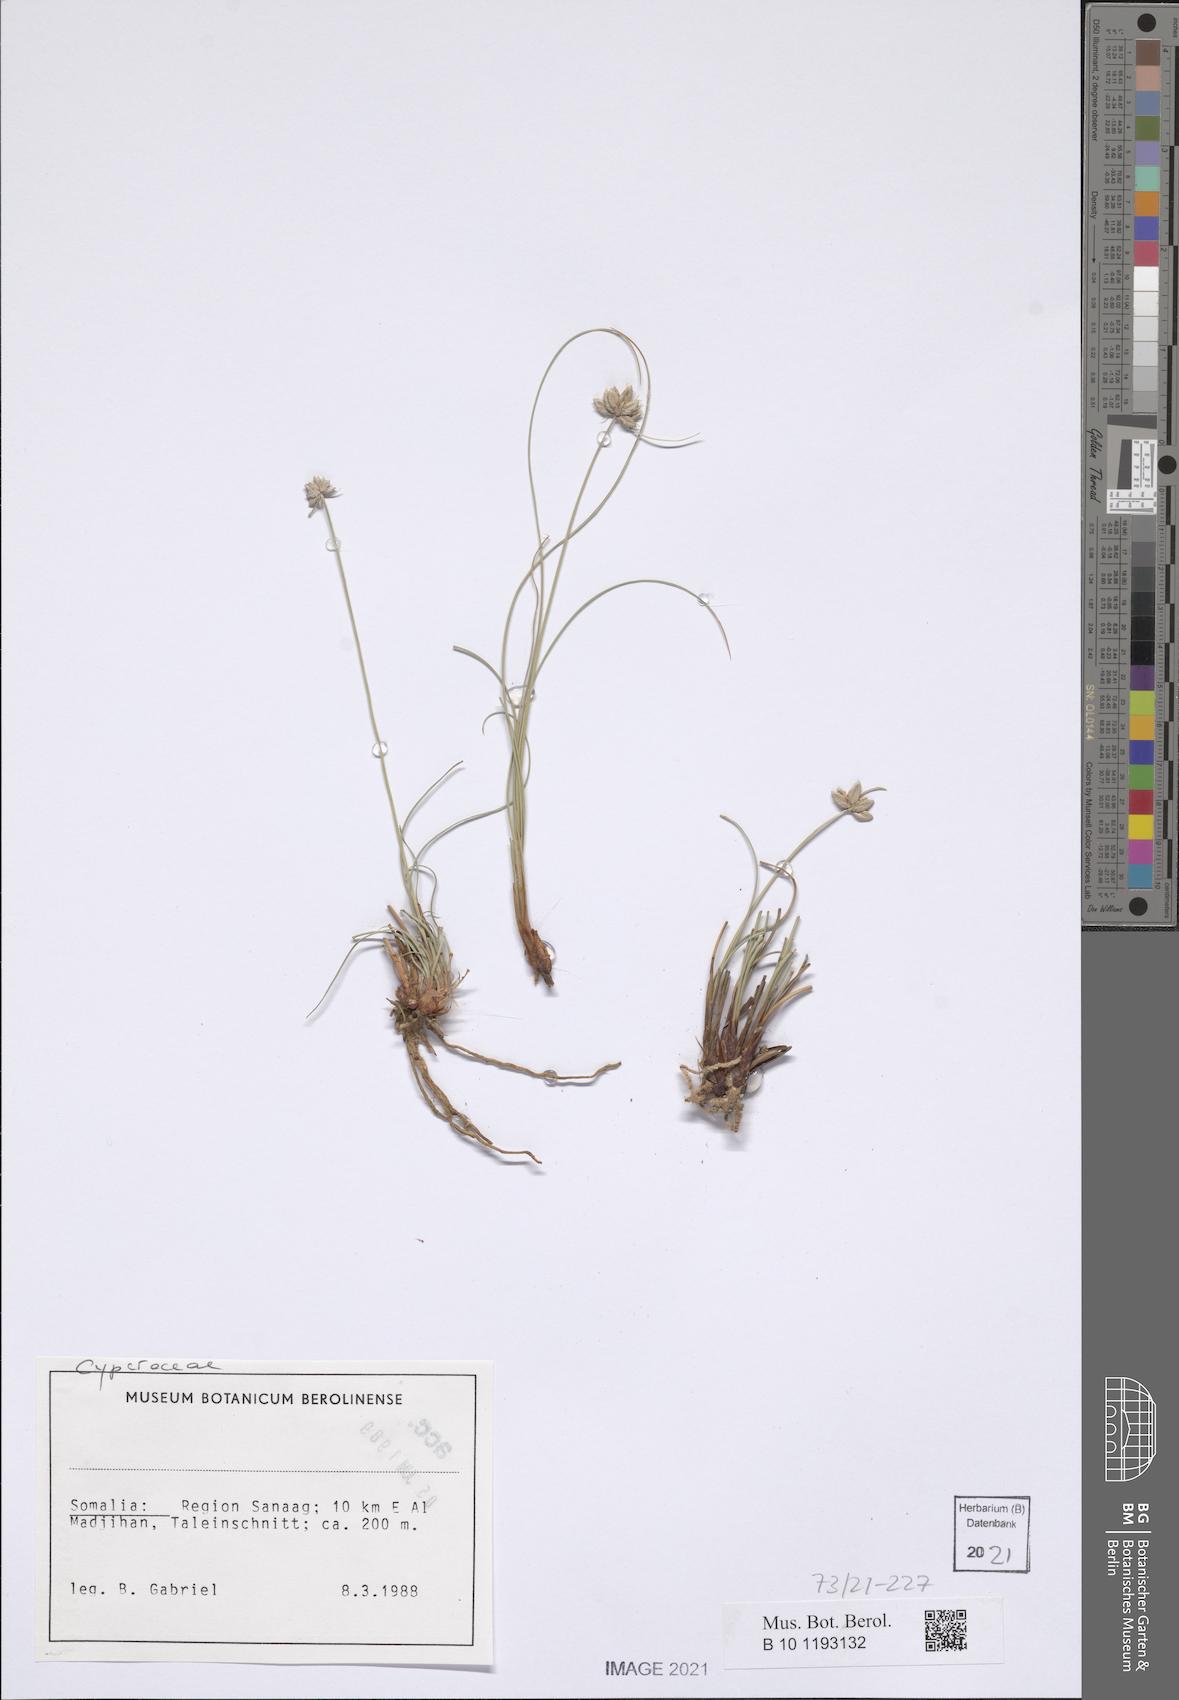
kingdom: Plantae
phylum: Tracheophyta
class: Liliopsida
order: Poales
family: Cyperaceae
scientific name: Cyperaceae
